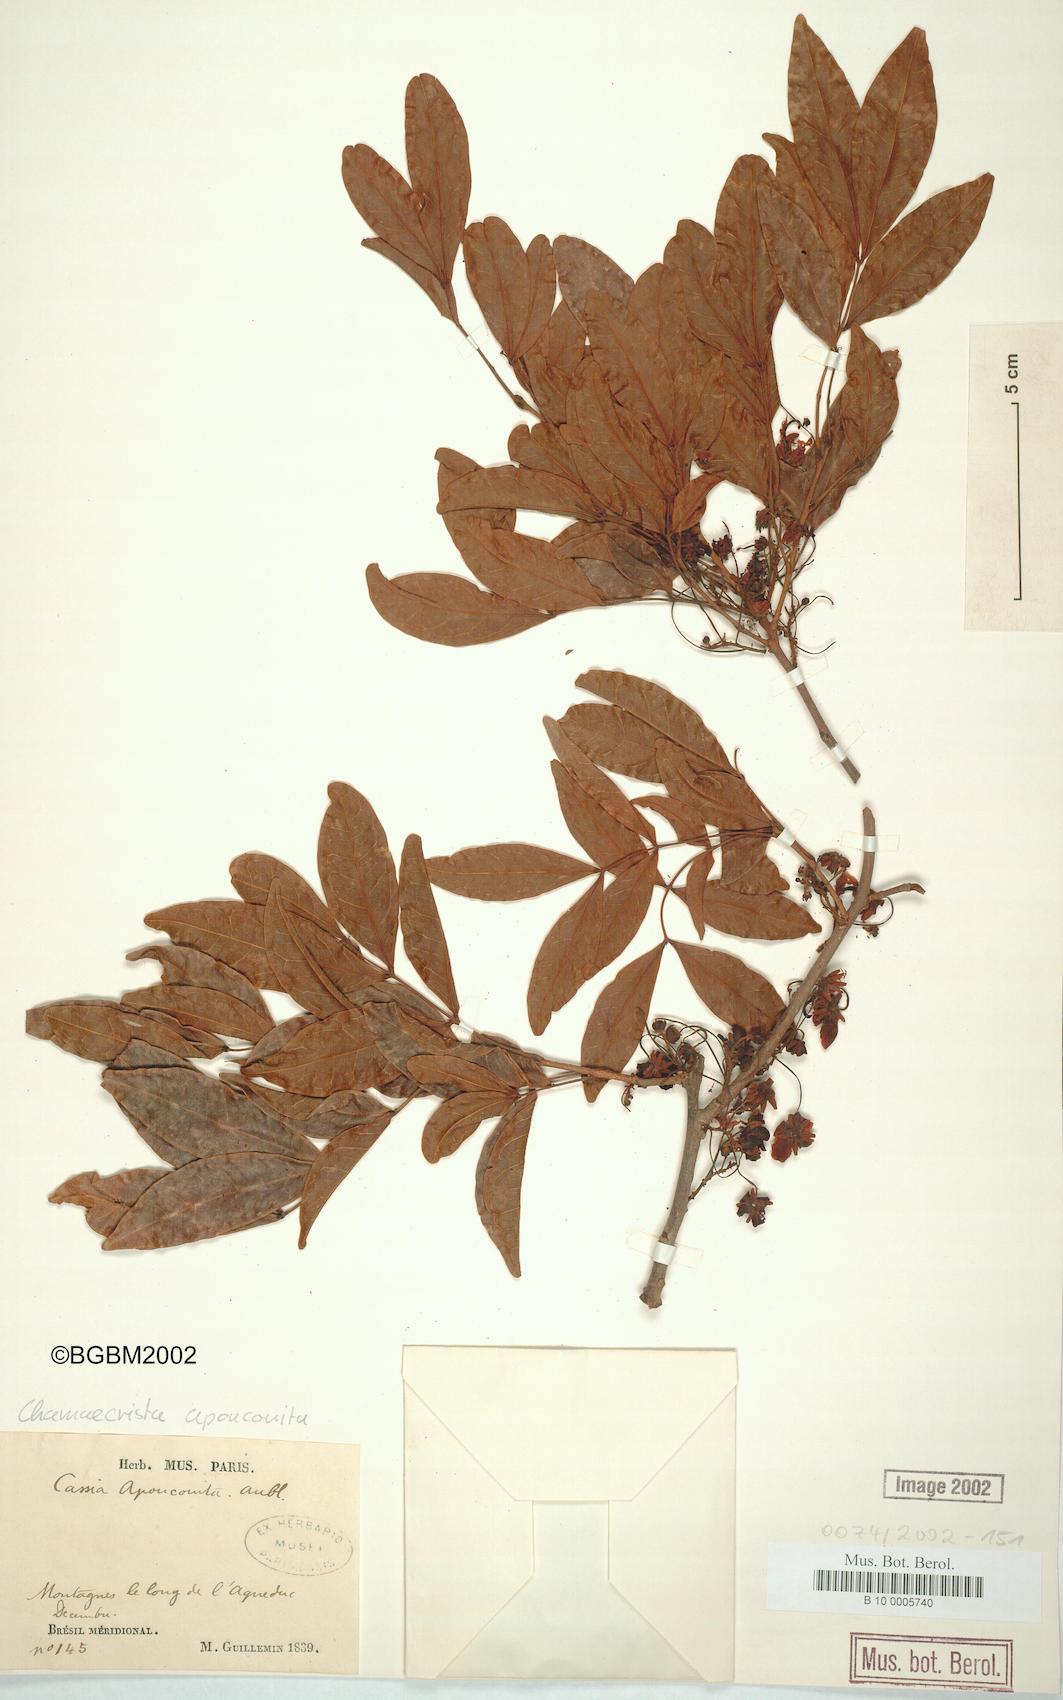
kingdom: Plantae
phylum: Tracheophyta
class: Magnoliopsida
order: Fabales
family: Fabaceae
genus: Chamaecrista
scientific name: Chamaecrista apoucouita
